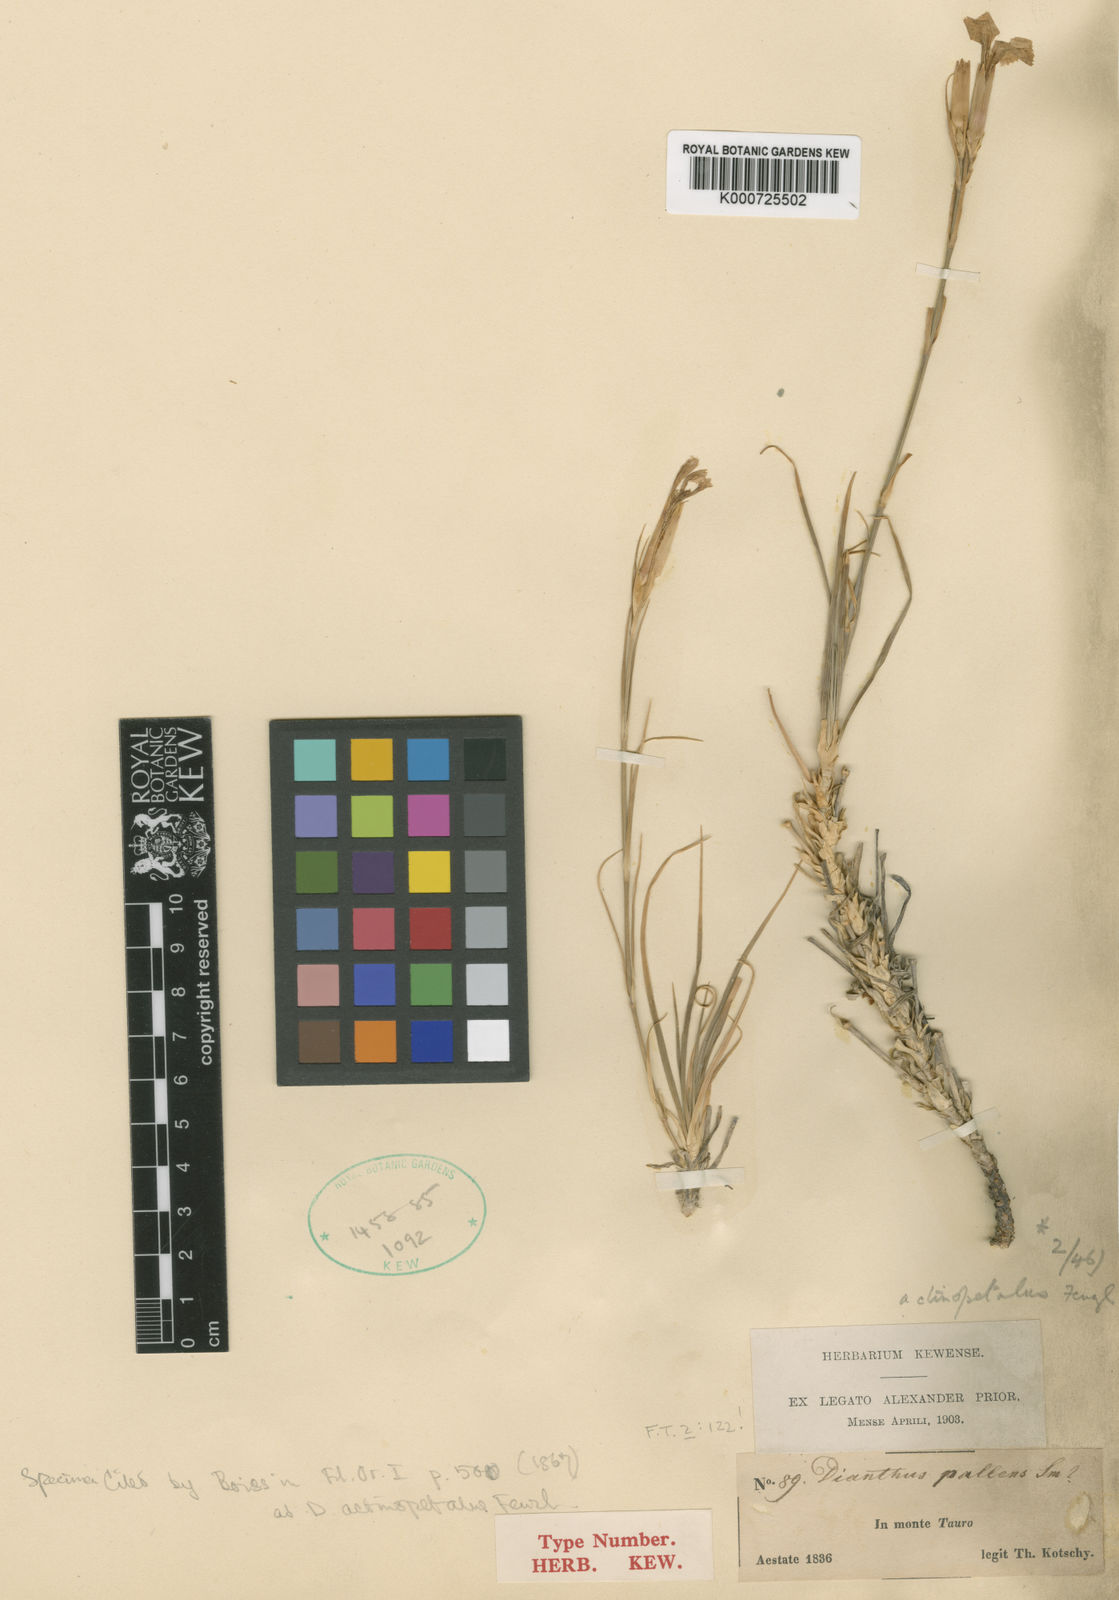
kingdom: Plantae
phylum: Tracheophyta
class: Magnoliopsida
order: Caryophyllales
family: Caryophyllaceae
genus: Dianthus
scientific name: Dianthus
